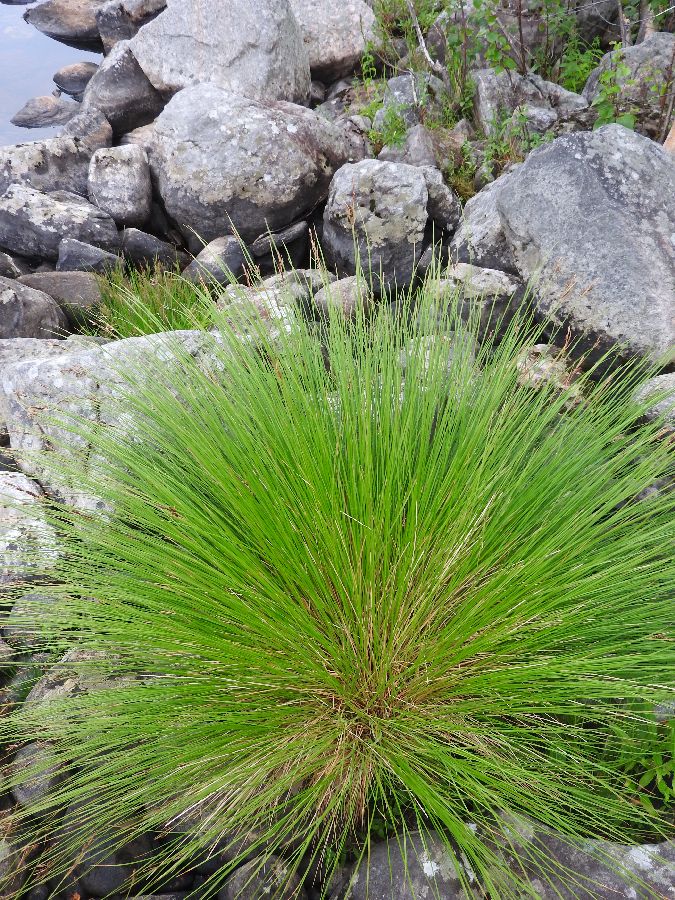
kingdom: Plantae
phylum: Tracheophyta
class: Liliopsida
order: Poales
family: Cyperaceae
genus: Carex
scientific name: Carex nigra
